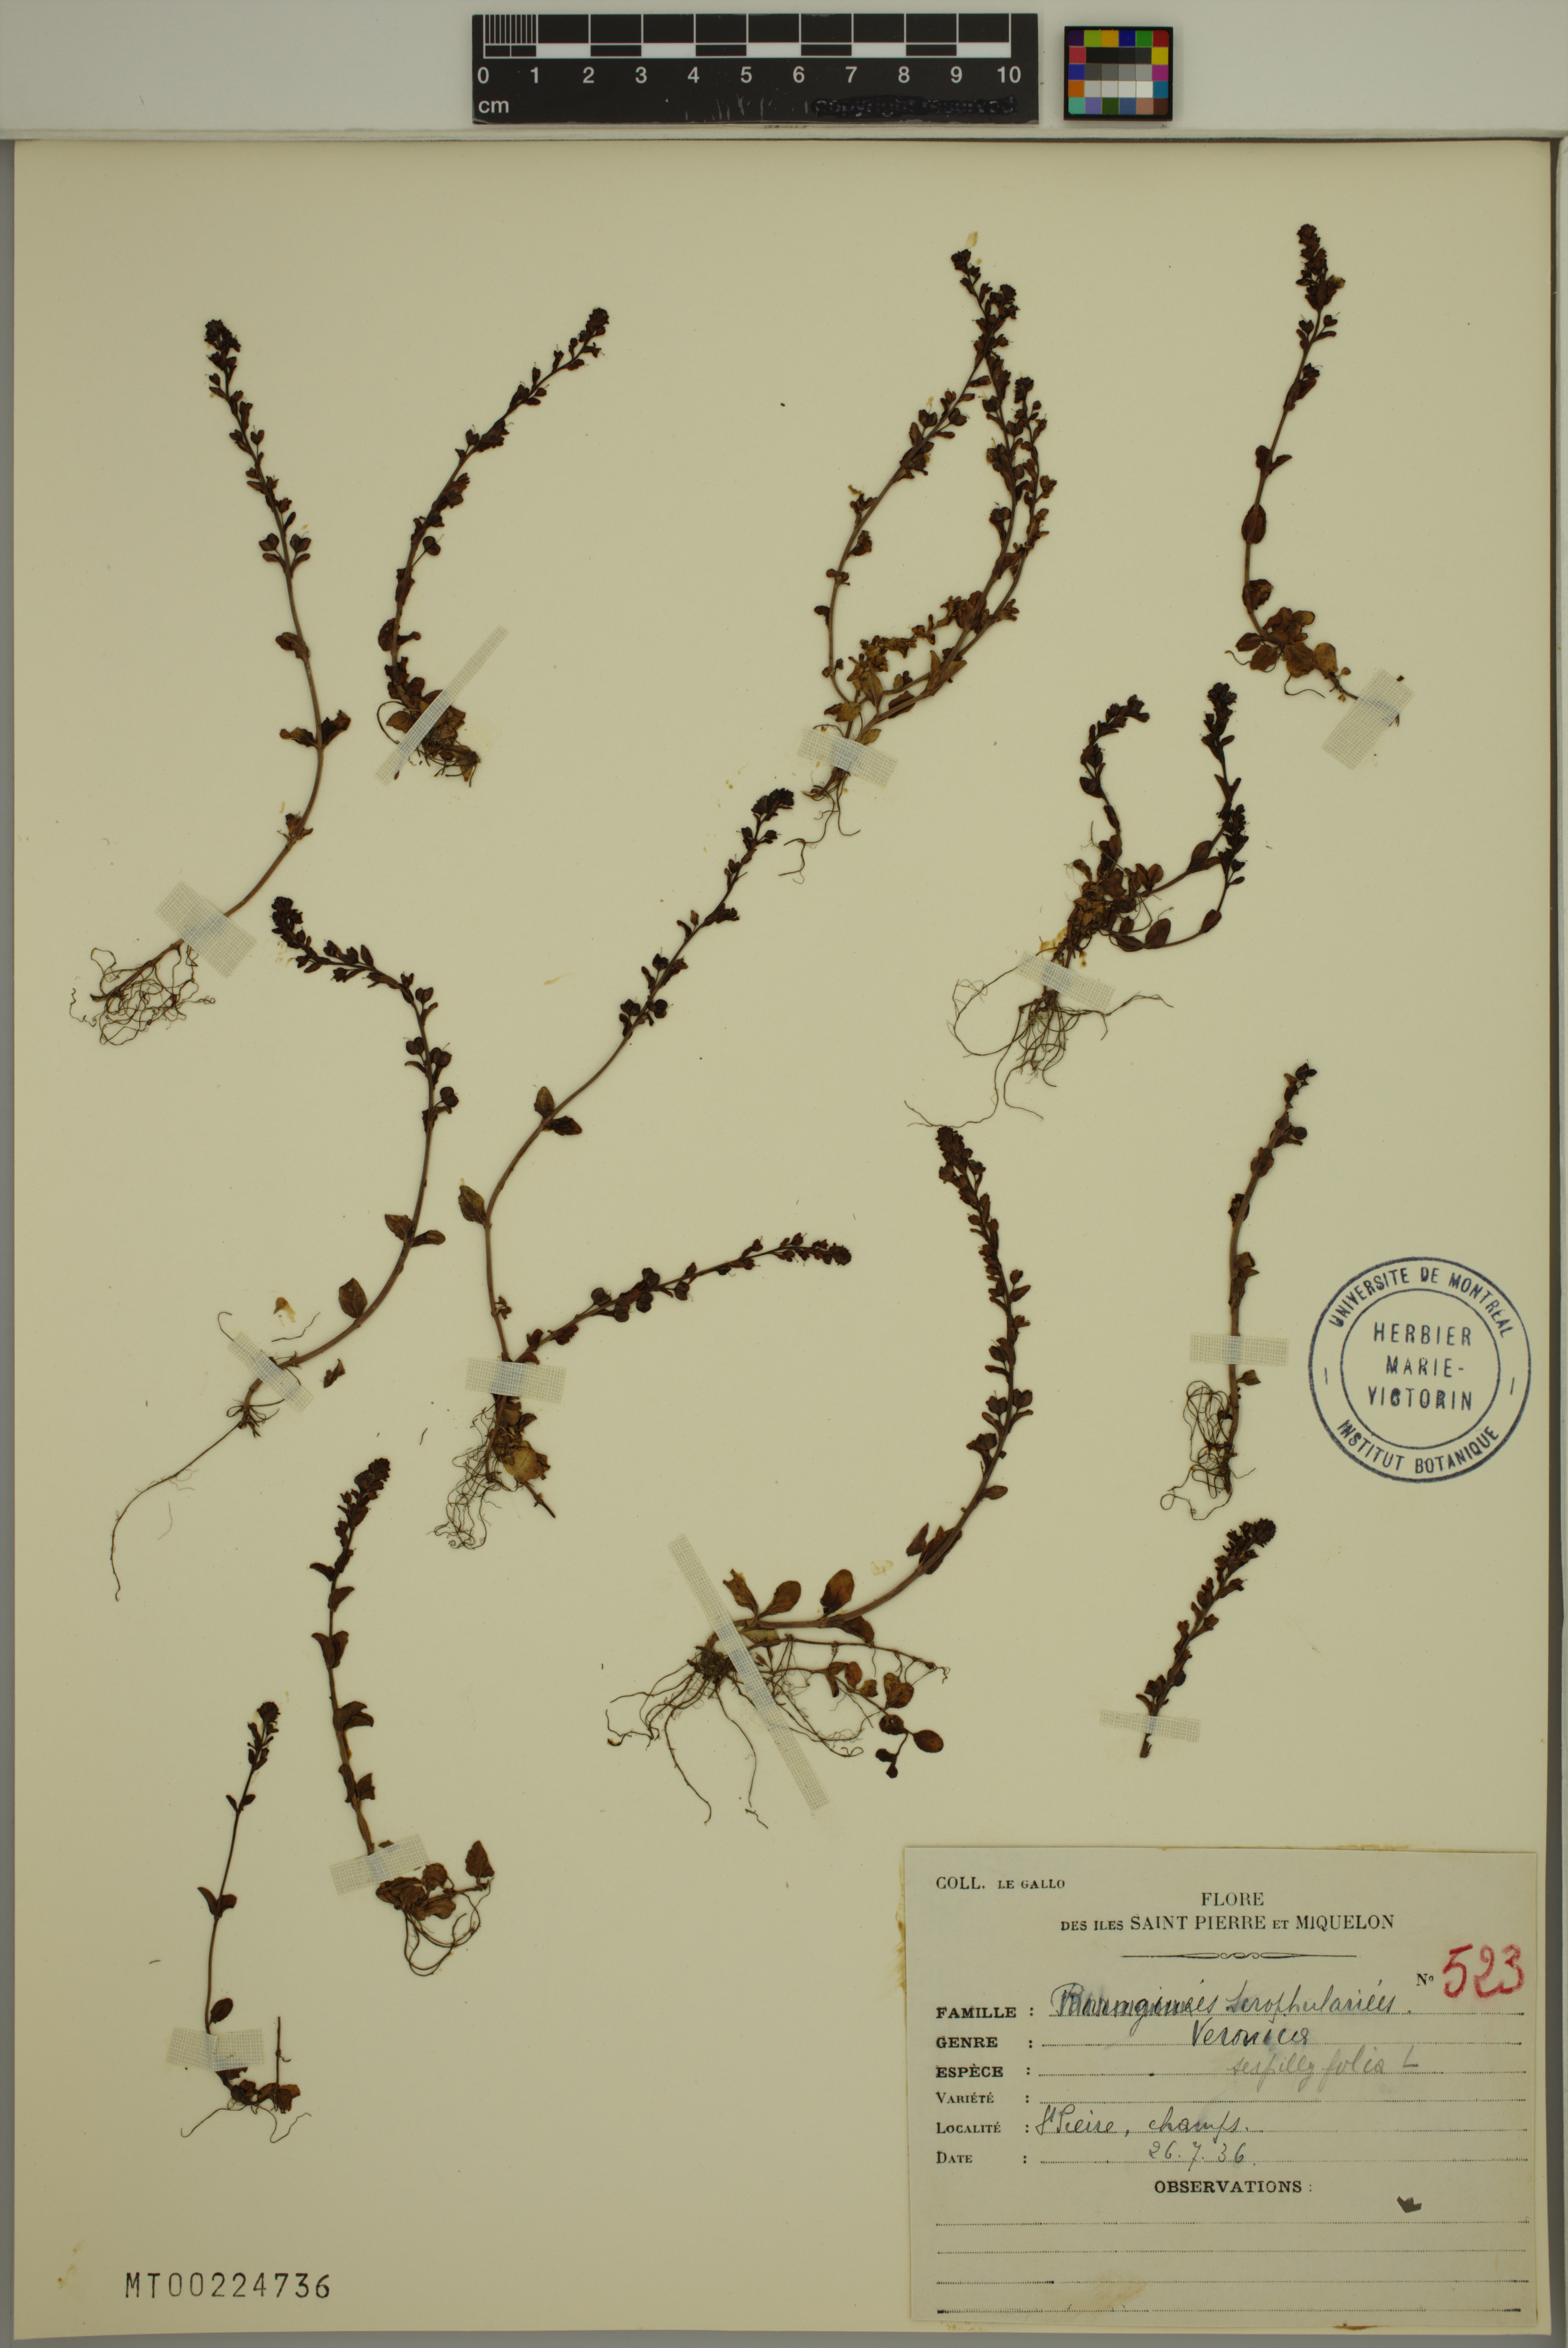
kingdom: Plantae
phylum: Tracheophyta
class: Magnoliopsida
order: Lamiales
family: Plantaginaceae
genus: Veronica
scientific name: Veronica serpyllifolia
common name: Thyme-leaved speedwell
